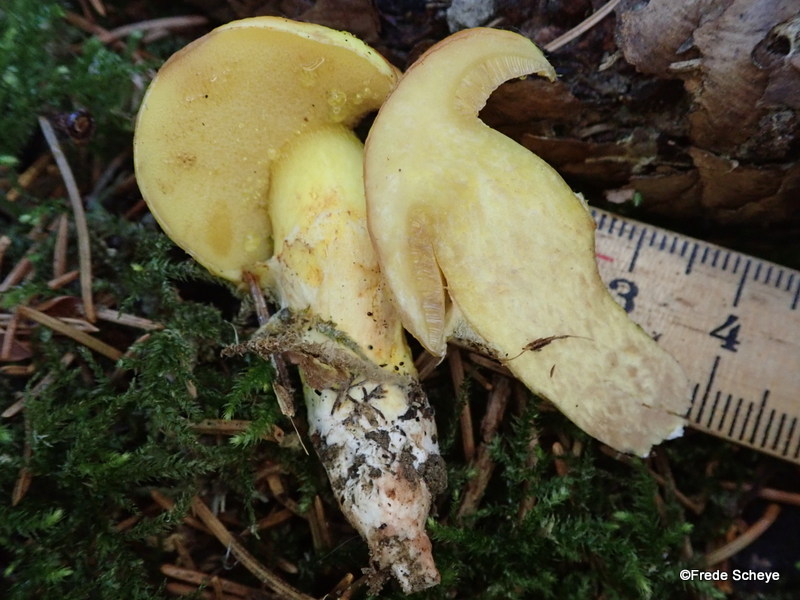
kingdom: Fungi
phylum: Basidiomycota
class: Agaricomycetes
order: Boletales
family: Suillaceae
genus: Suillus
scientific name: Suillus granulatus
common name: kornet slimrørhat
